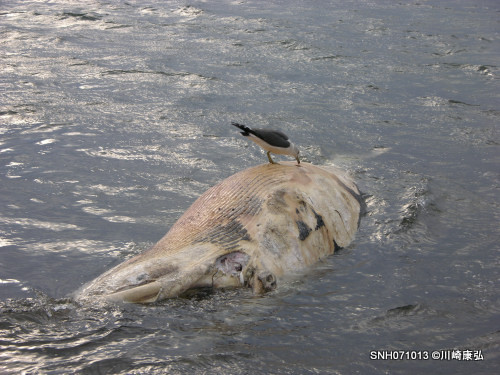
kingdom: Animalia
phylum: Chordata
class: Mammalia
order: Cetacea
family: Balaenopteridae
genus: Balaenoptera
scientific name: Balaenoptera acutorostrata
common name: Minke whale
